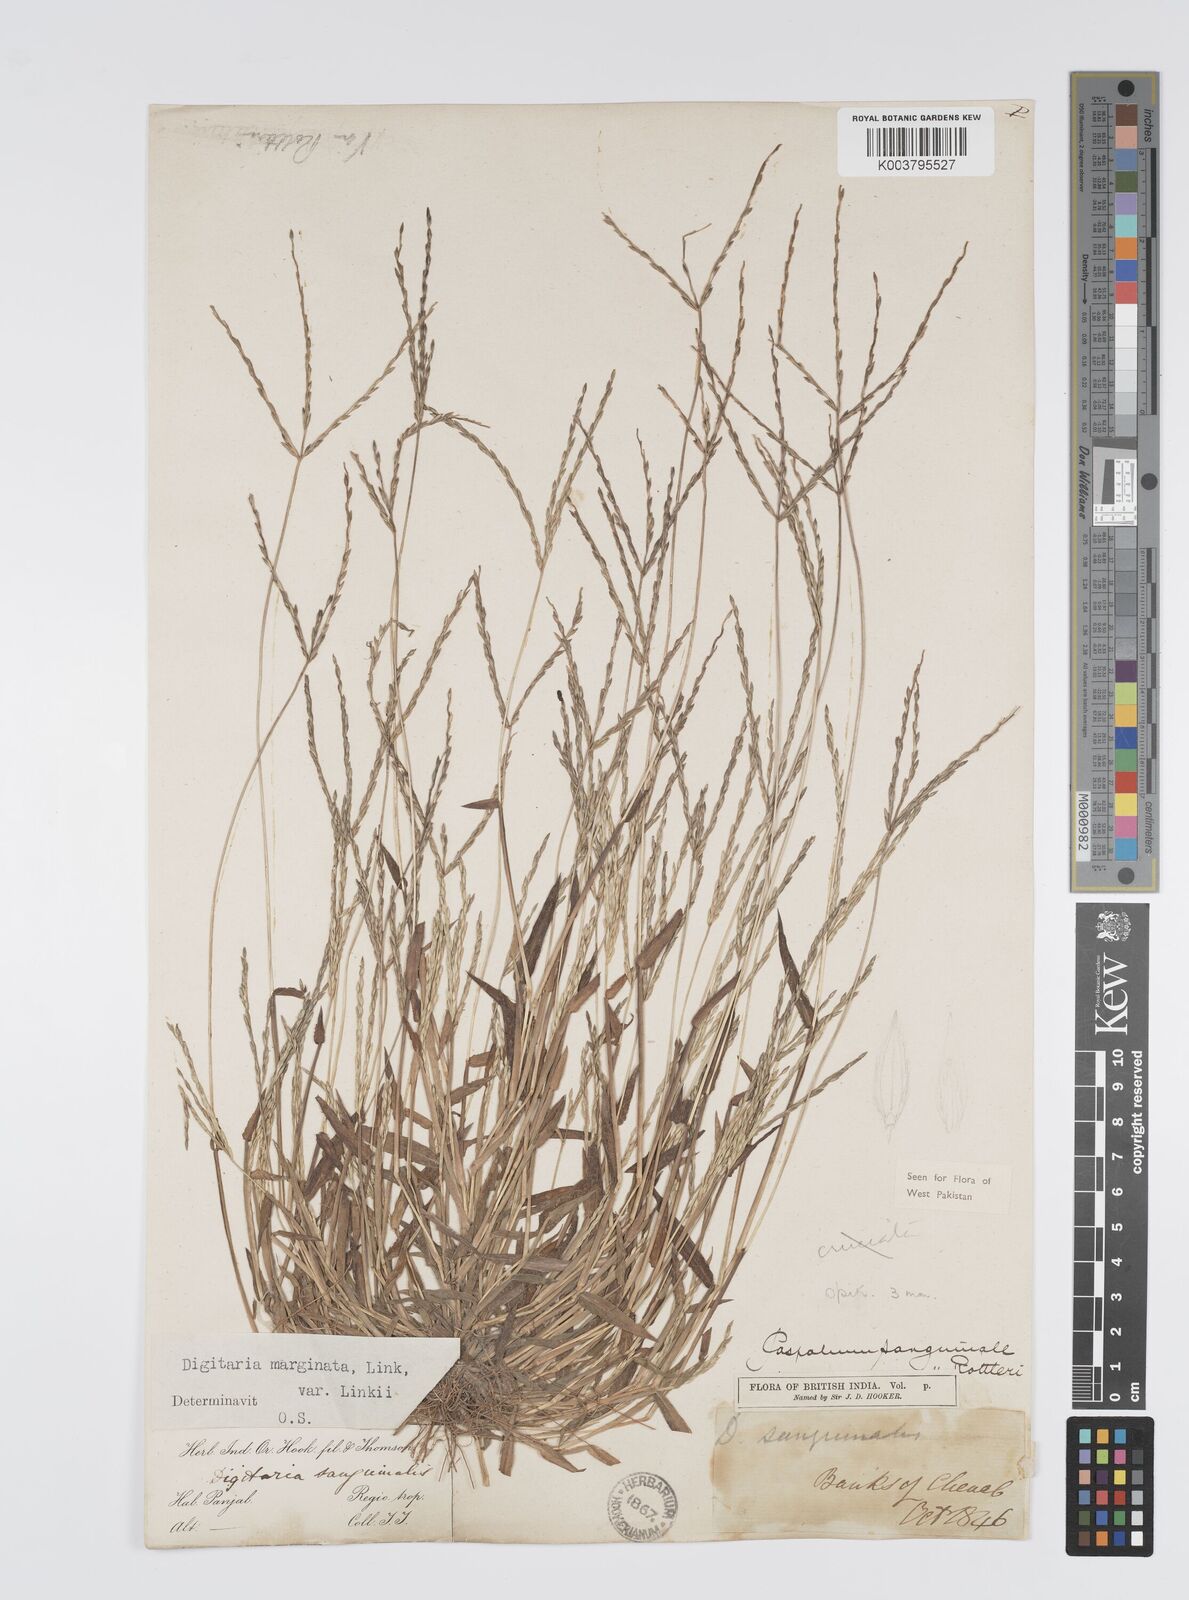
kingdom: Plantae
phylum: Tracheophyta
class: Liliopsida
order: Poales
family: Poaceae
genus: Digitaria
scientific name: Digitaria sanguinalis
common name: Hairy crabgrass
